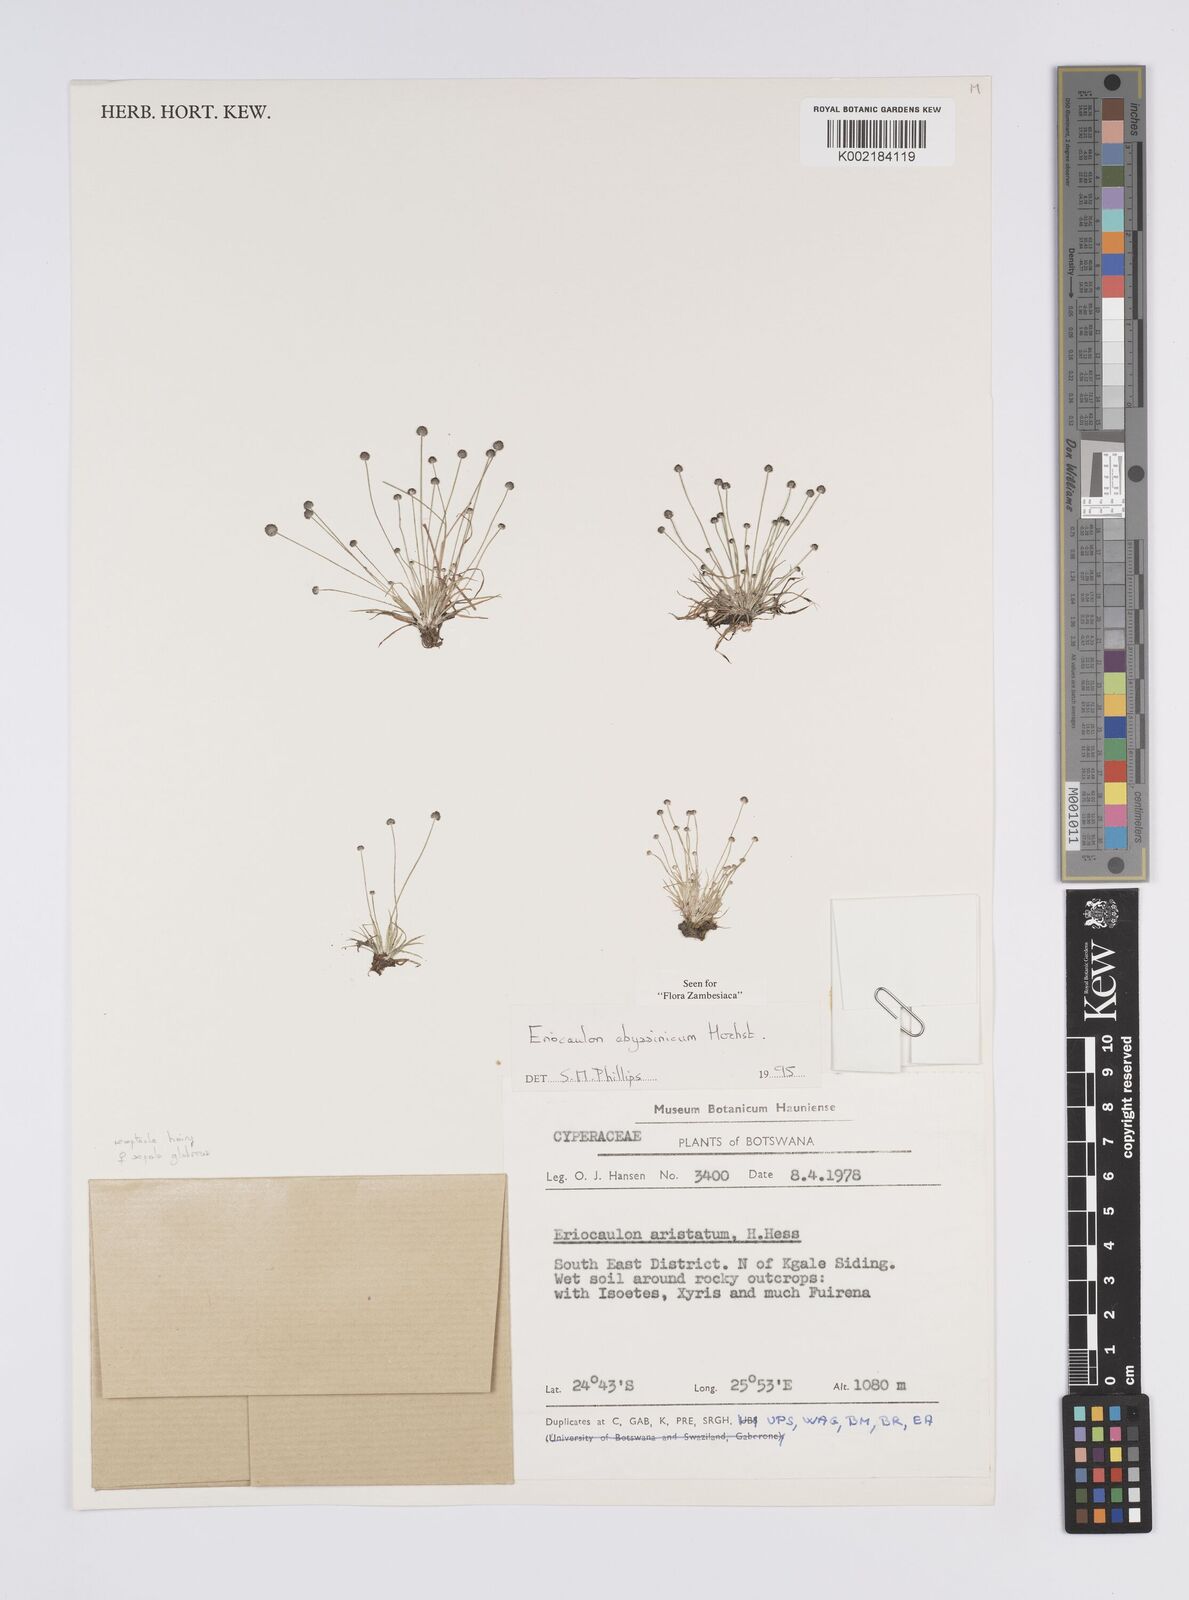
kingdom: Plantae
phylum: Tracheophyta
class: Liliopsida
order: Poales
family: Eriocaulaceae
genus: Eriocaulon
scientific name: Eriocaulon abyssinicum
